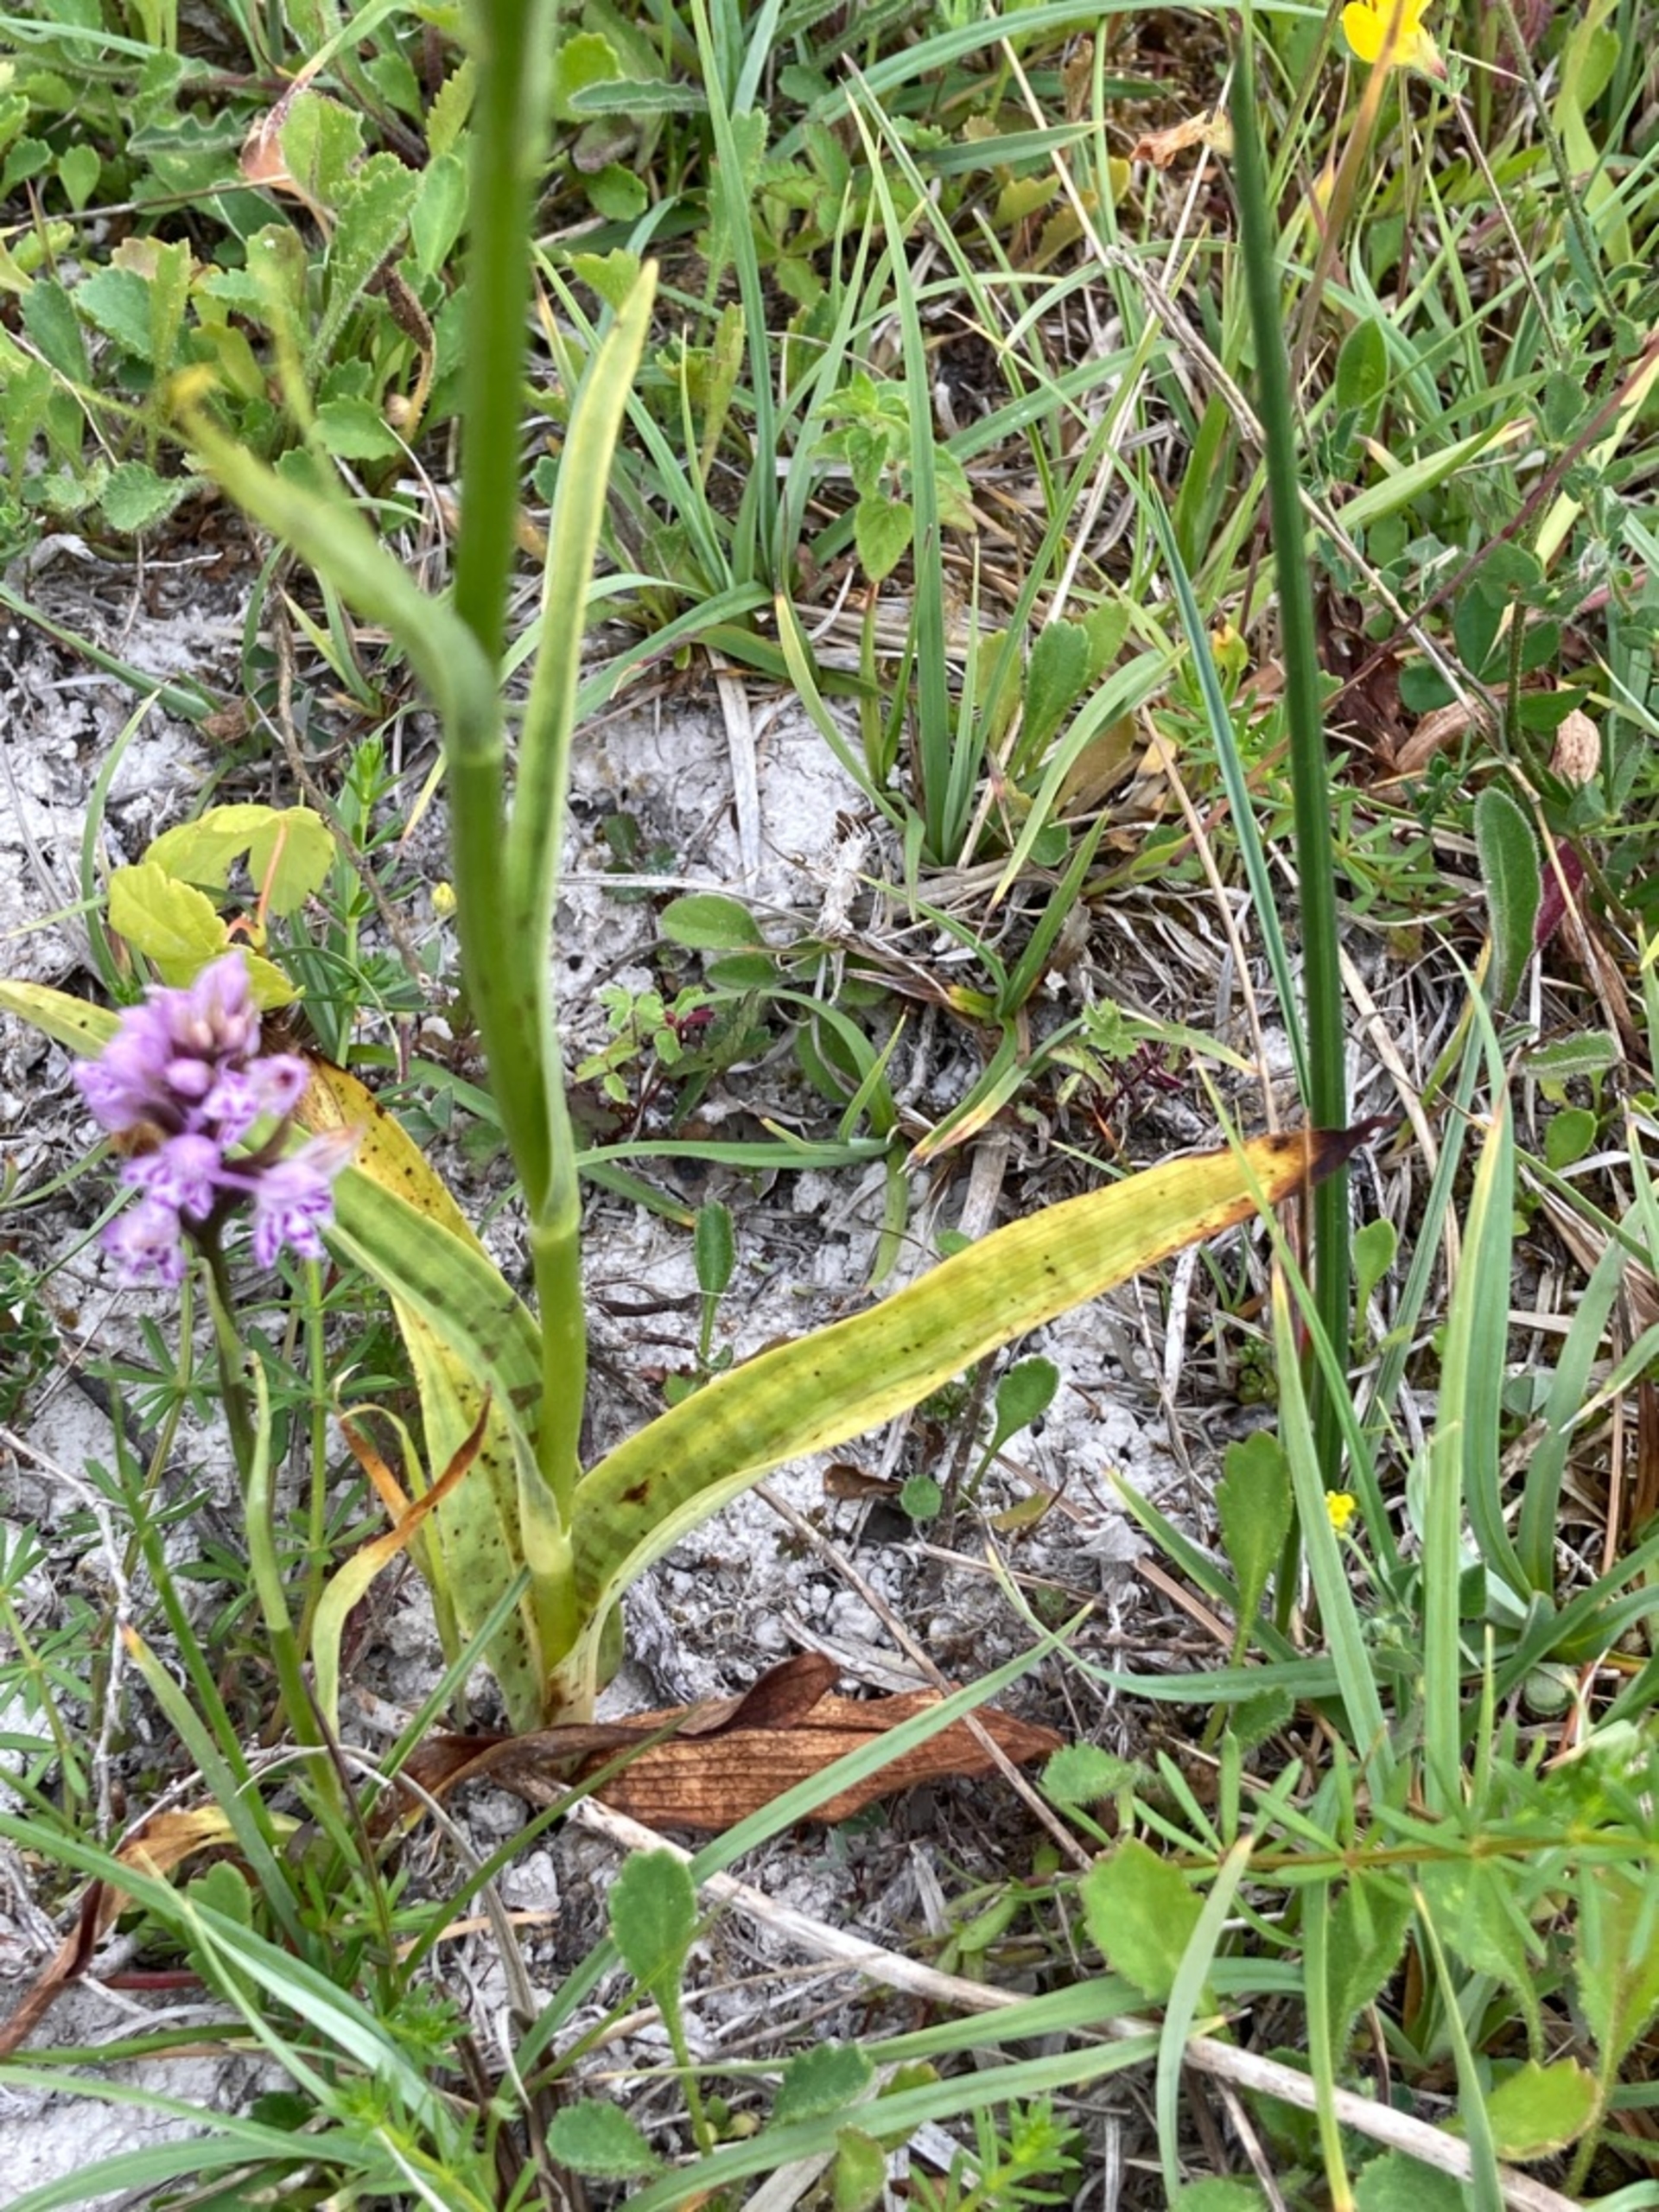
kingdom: Plantae
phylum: Tracheophyta
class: Liliopsida
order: Asparagales
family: Orchidaceae
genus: Dactylorhiza
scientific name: Dactylorhiza maculata
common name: Skov-gøgeurt
